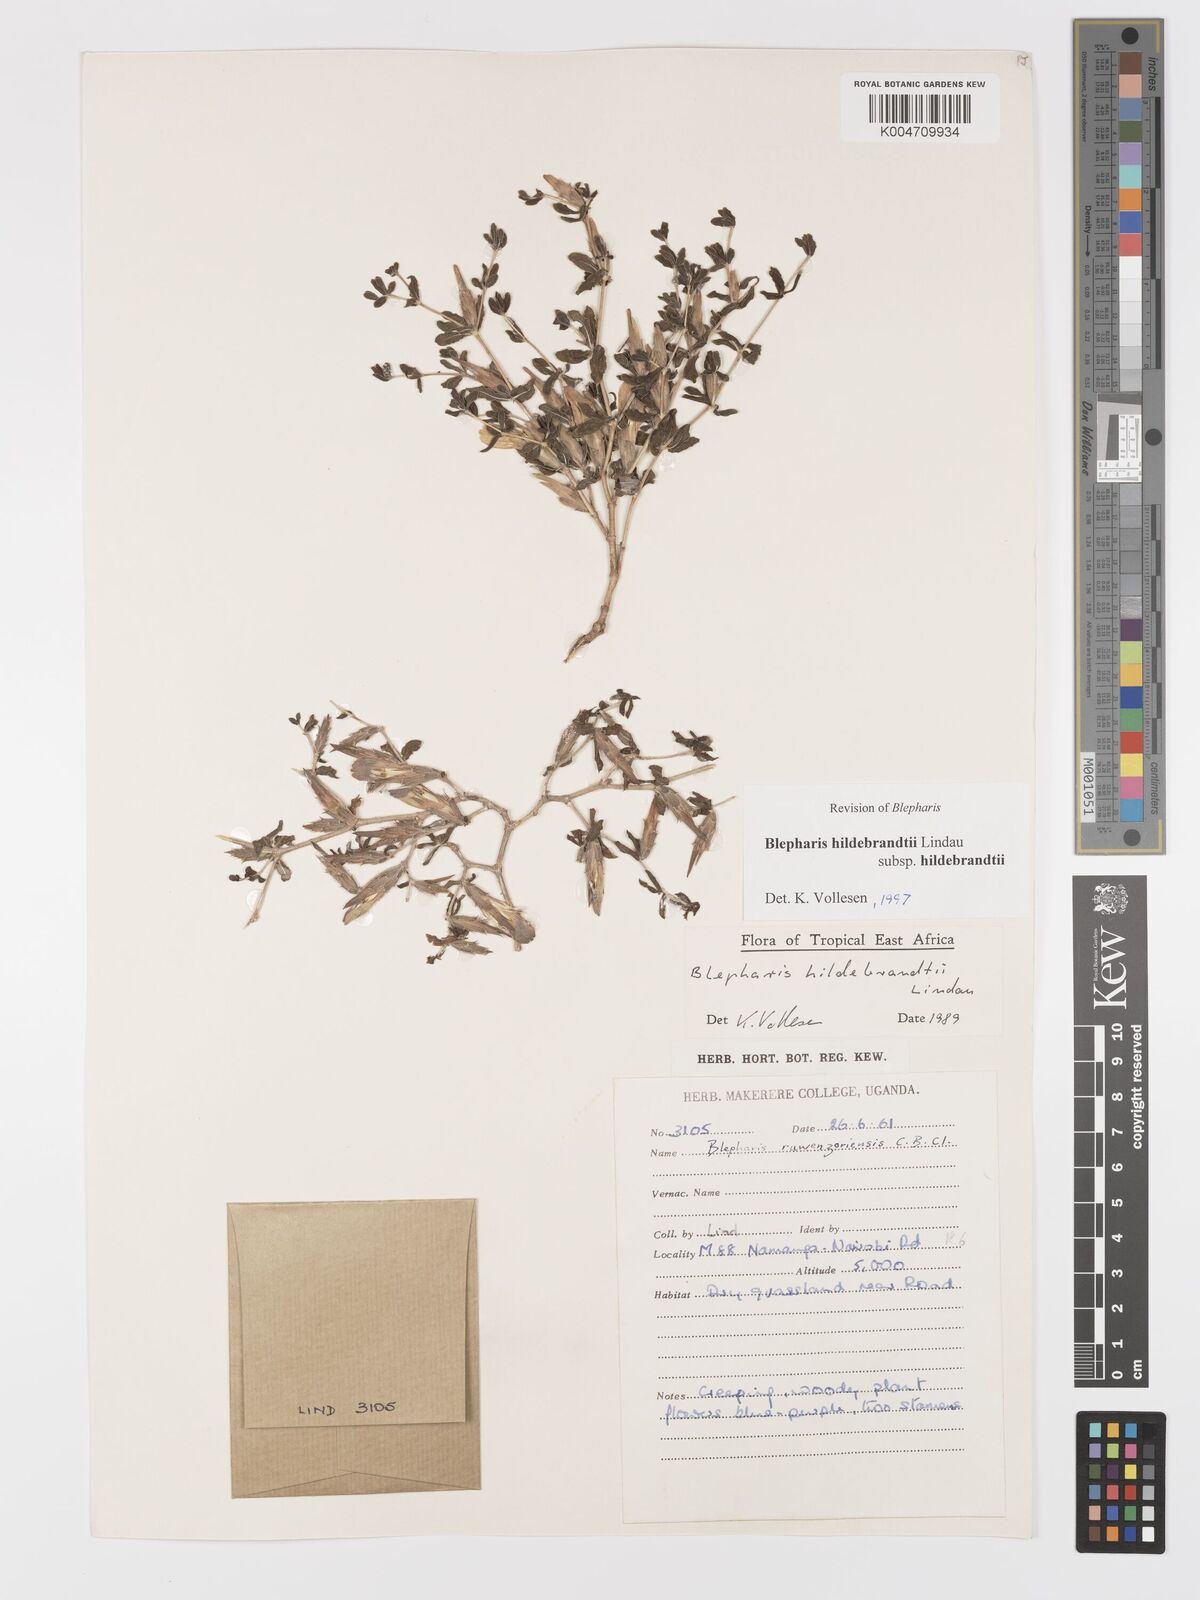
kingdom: Plantae
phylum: Tracheophyta
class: Magnoliopsida
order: Lamiales
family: Acanthaceae
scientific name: Acanthaceae
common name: Acanthaceae
